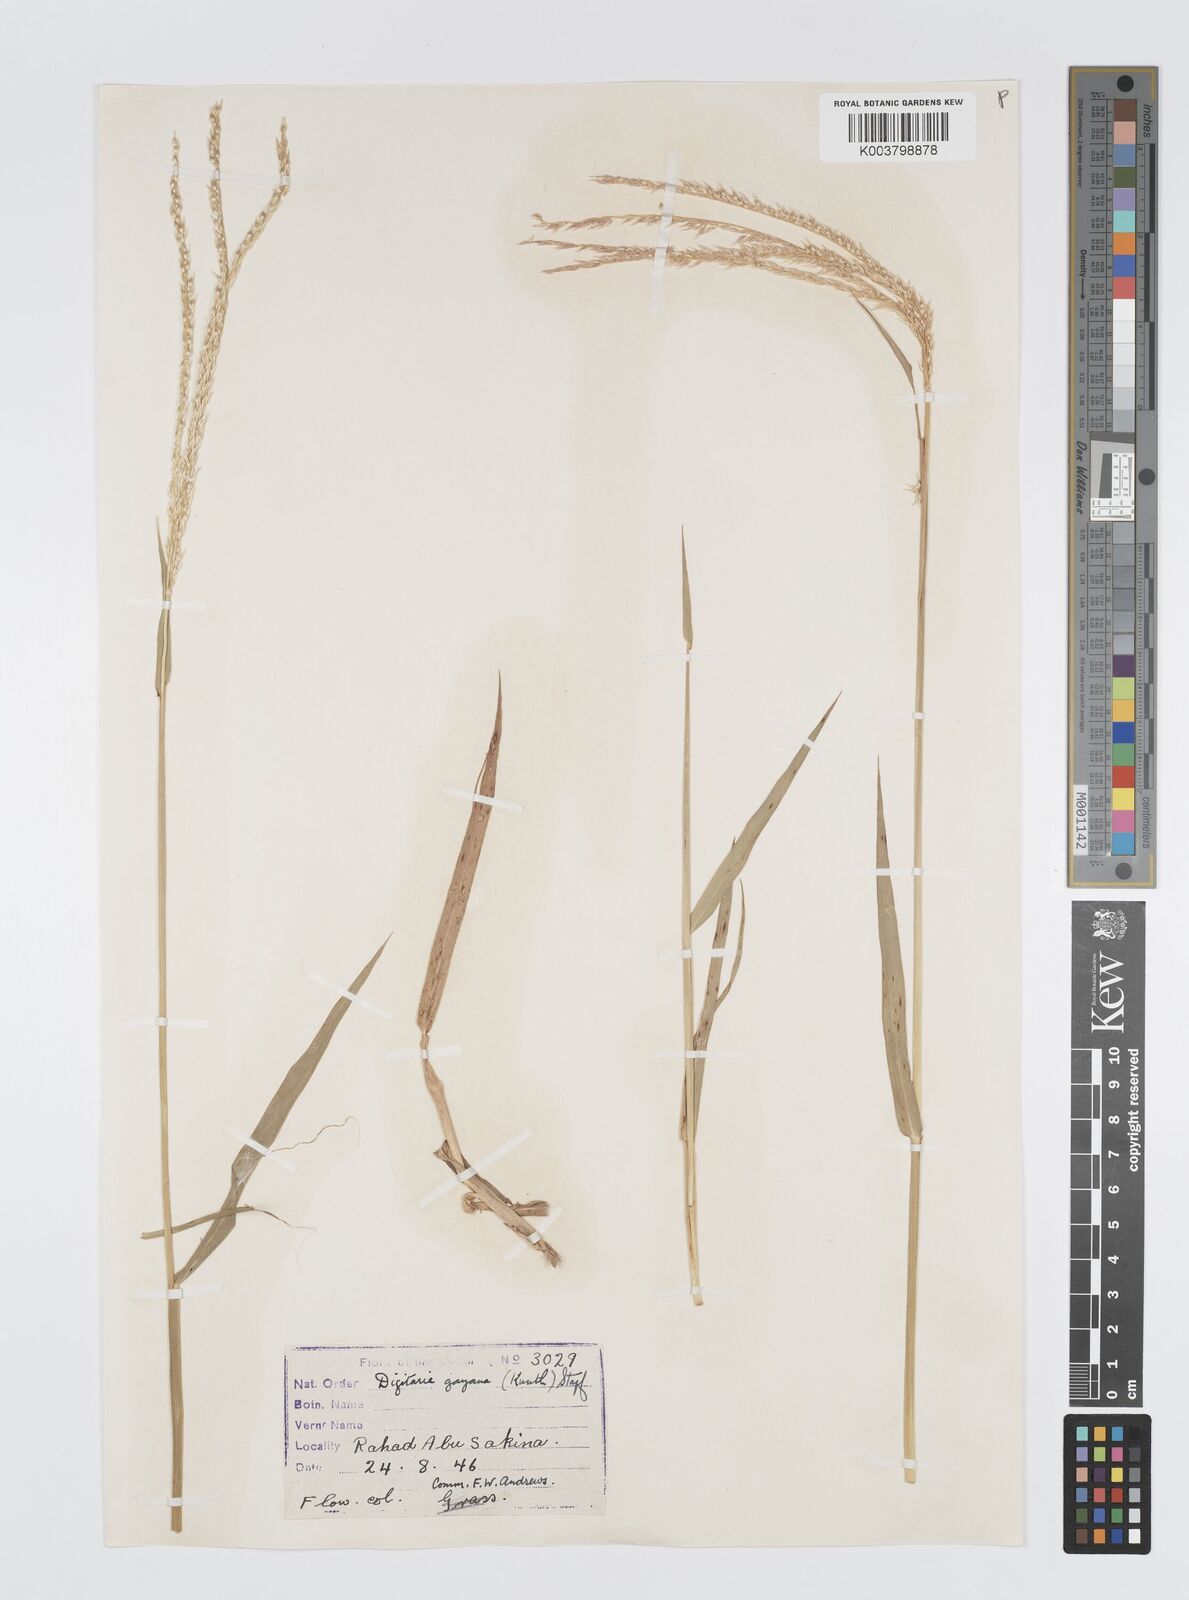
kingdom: Plantae
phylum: Tracheophyta
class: Liliopsida
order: Poales
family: Poaceae
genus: Digitaria
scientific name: Digitaria gayana
